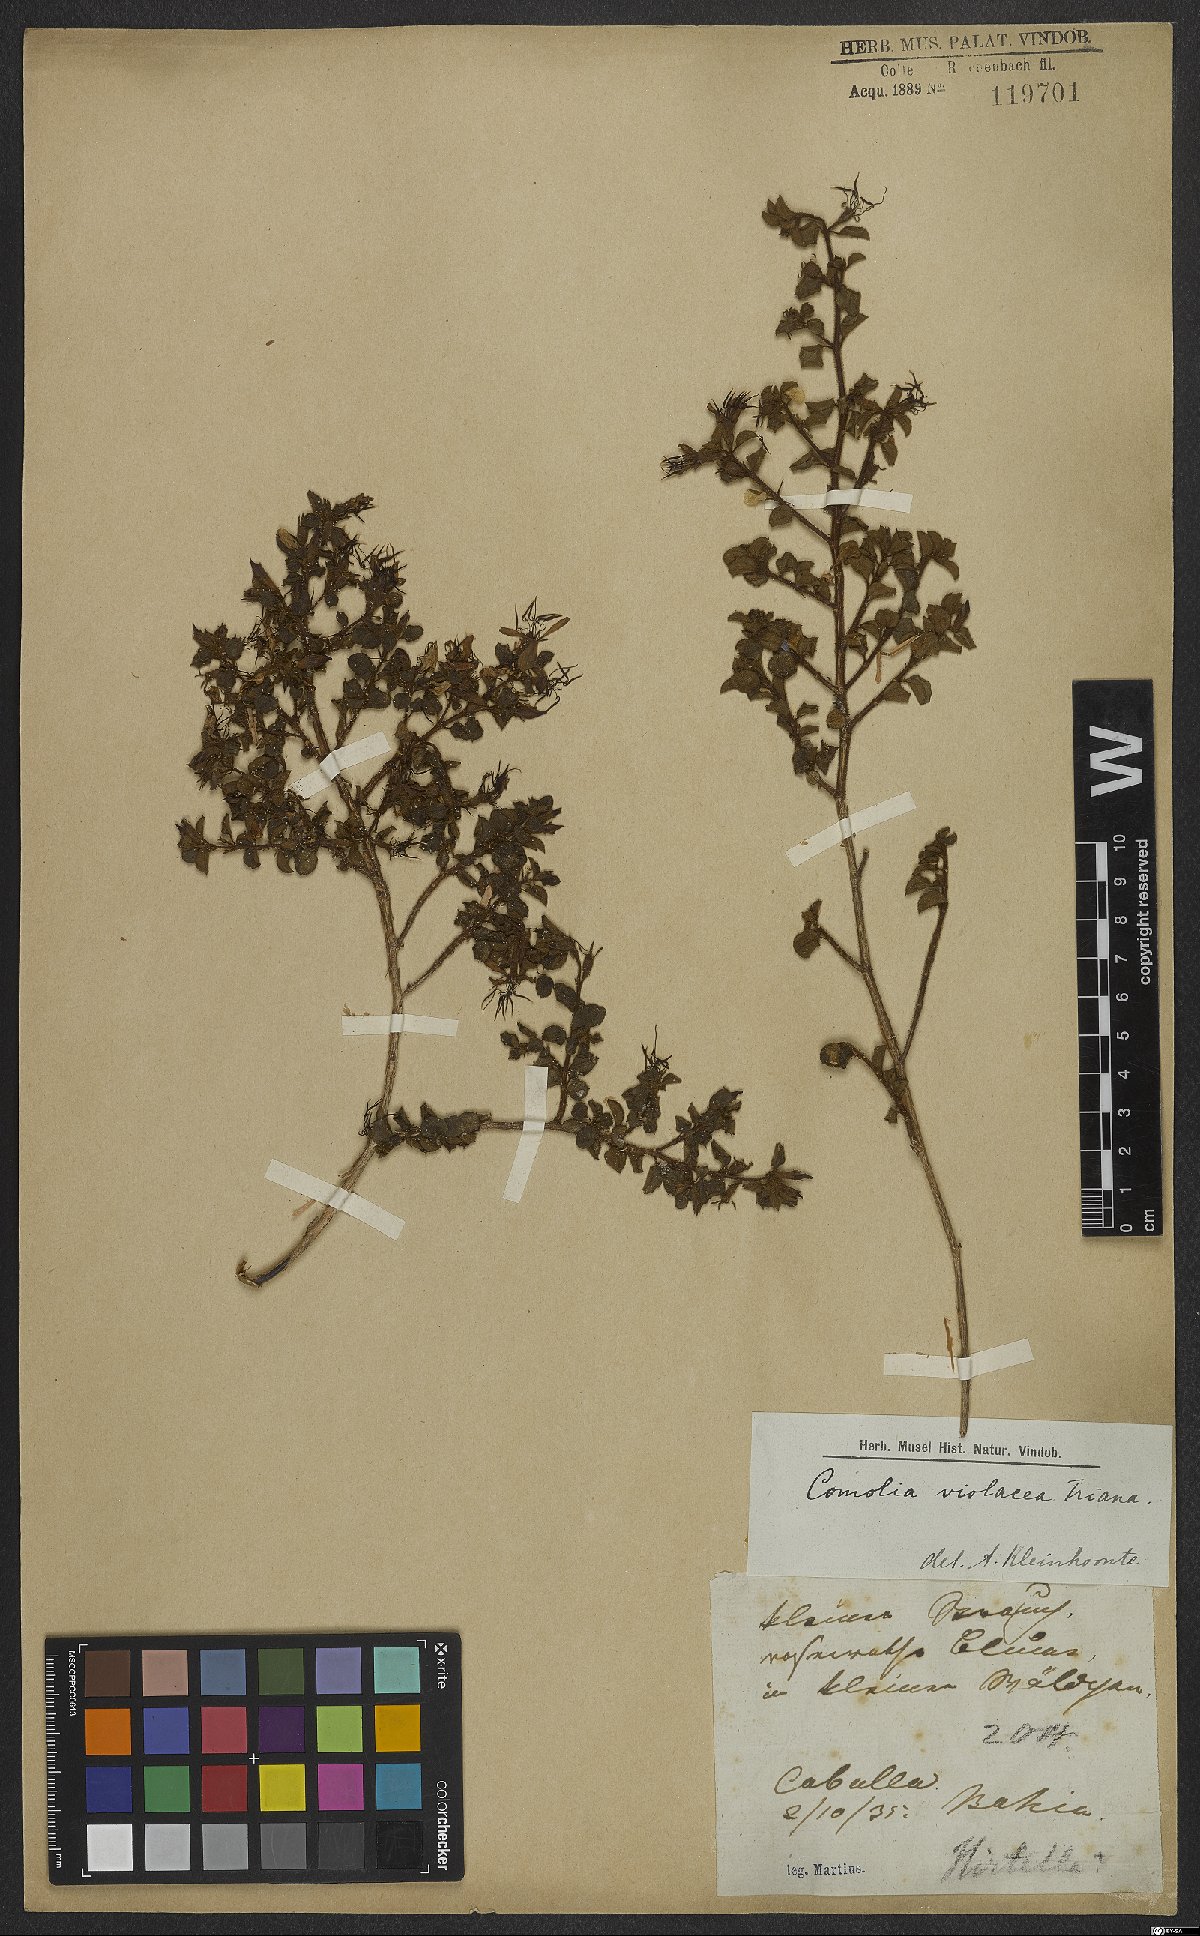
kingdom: Plantae
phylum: Tracheophyta
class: Magnoliopsida
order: Myrtales
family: Melastomataceae
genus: Fritzschia
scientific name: Fritzschia sessilis
